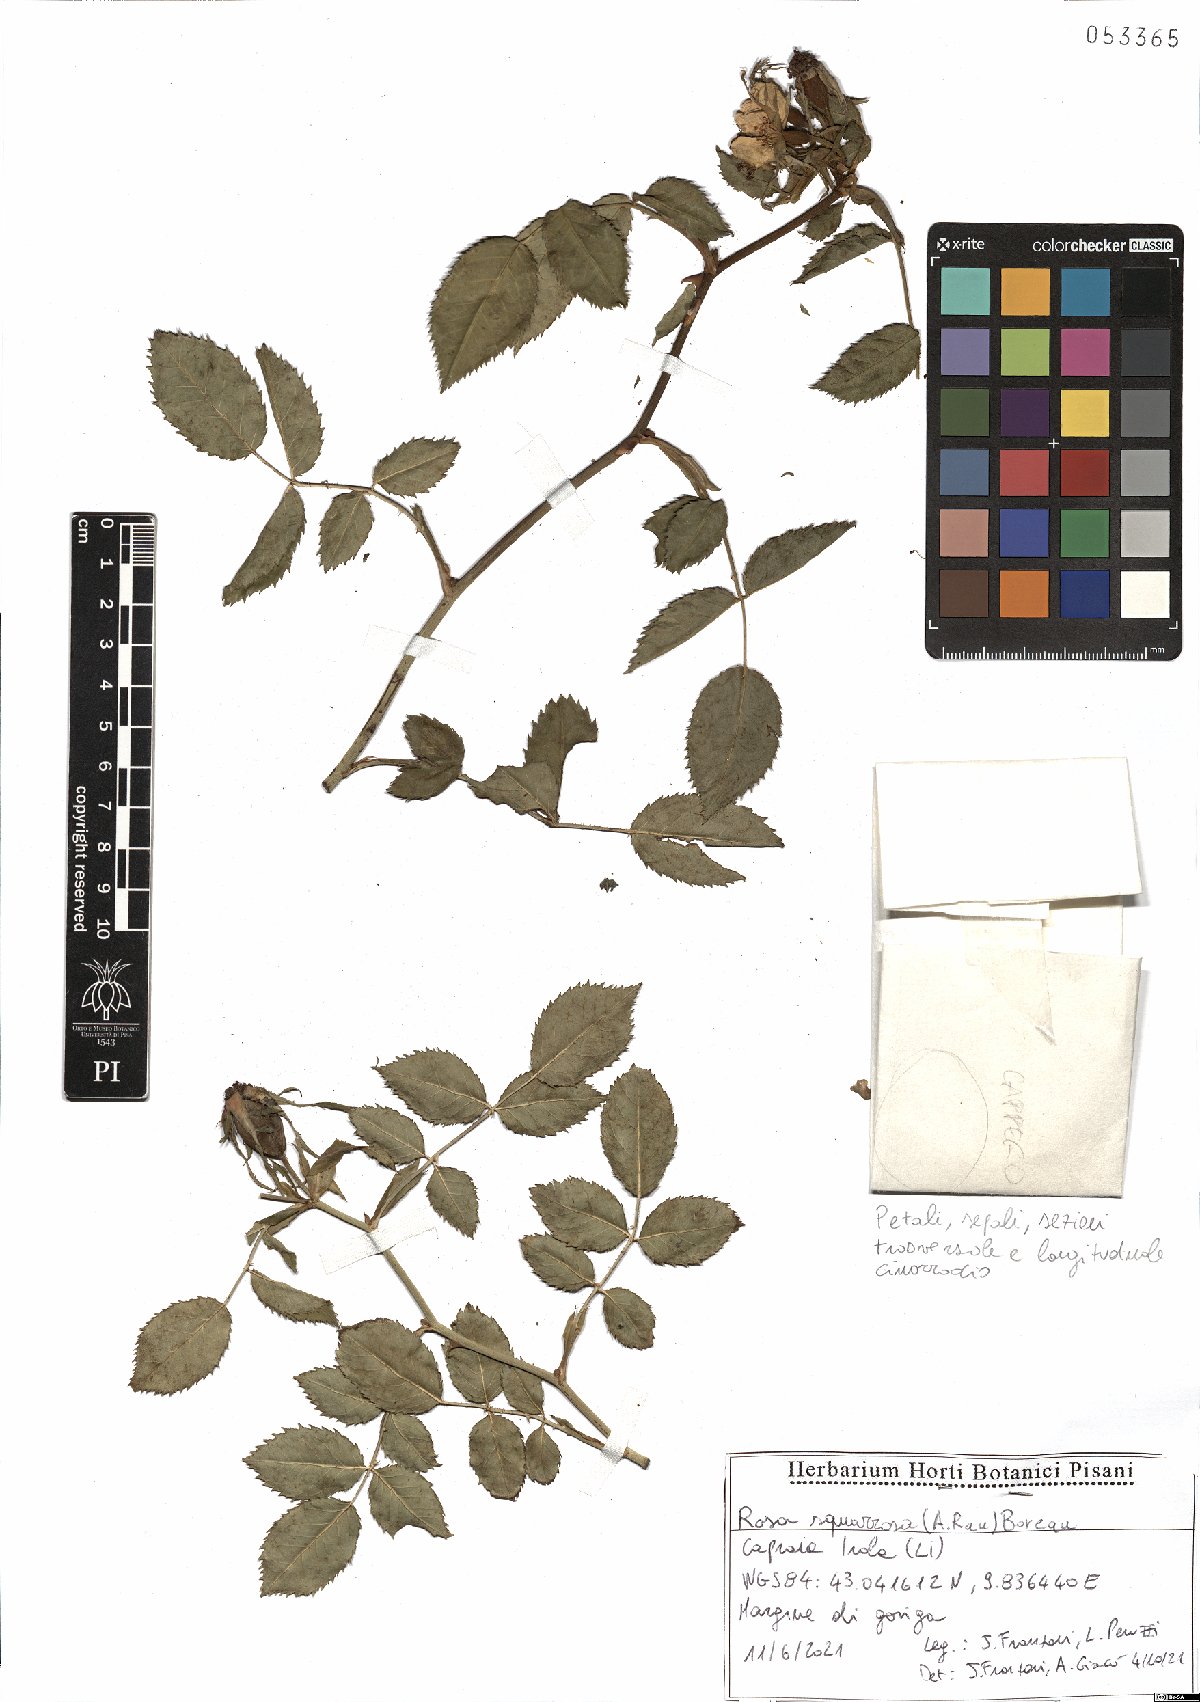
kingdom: Plantae
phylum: Tracheophyta
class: Magnoliopsida
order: Rosales
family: Rosaceae
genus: Rosa
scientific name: Rosa canina
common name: Dog rose
